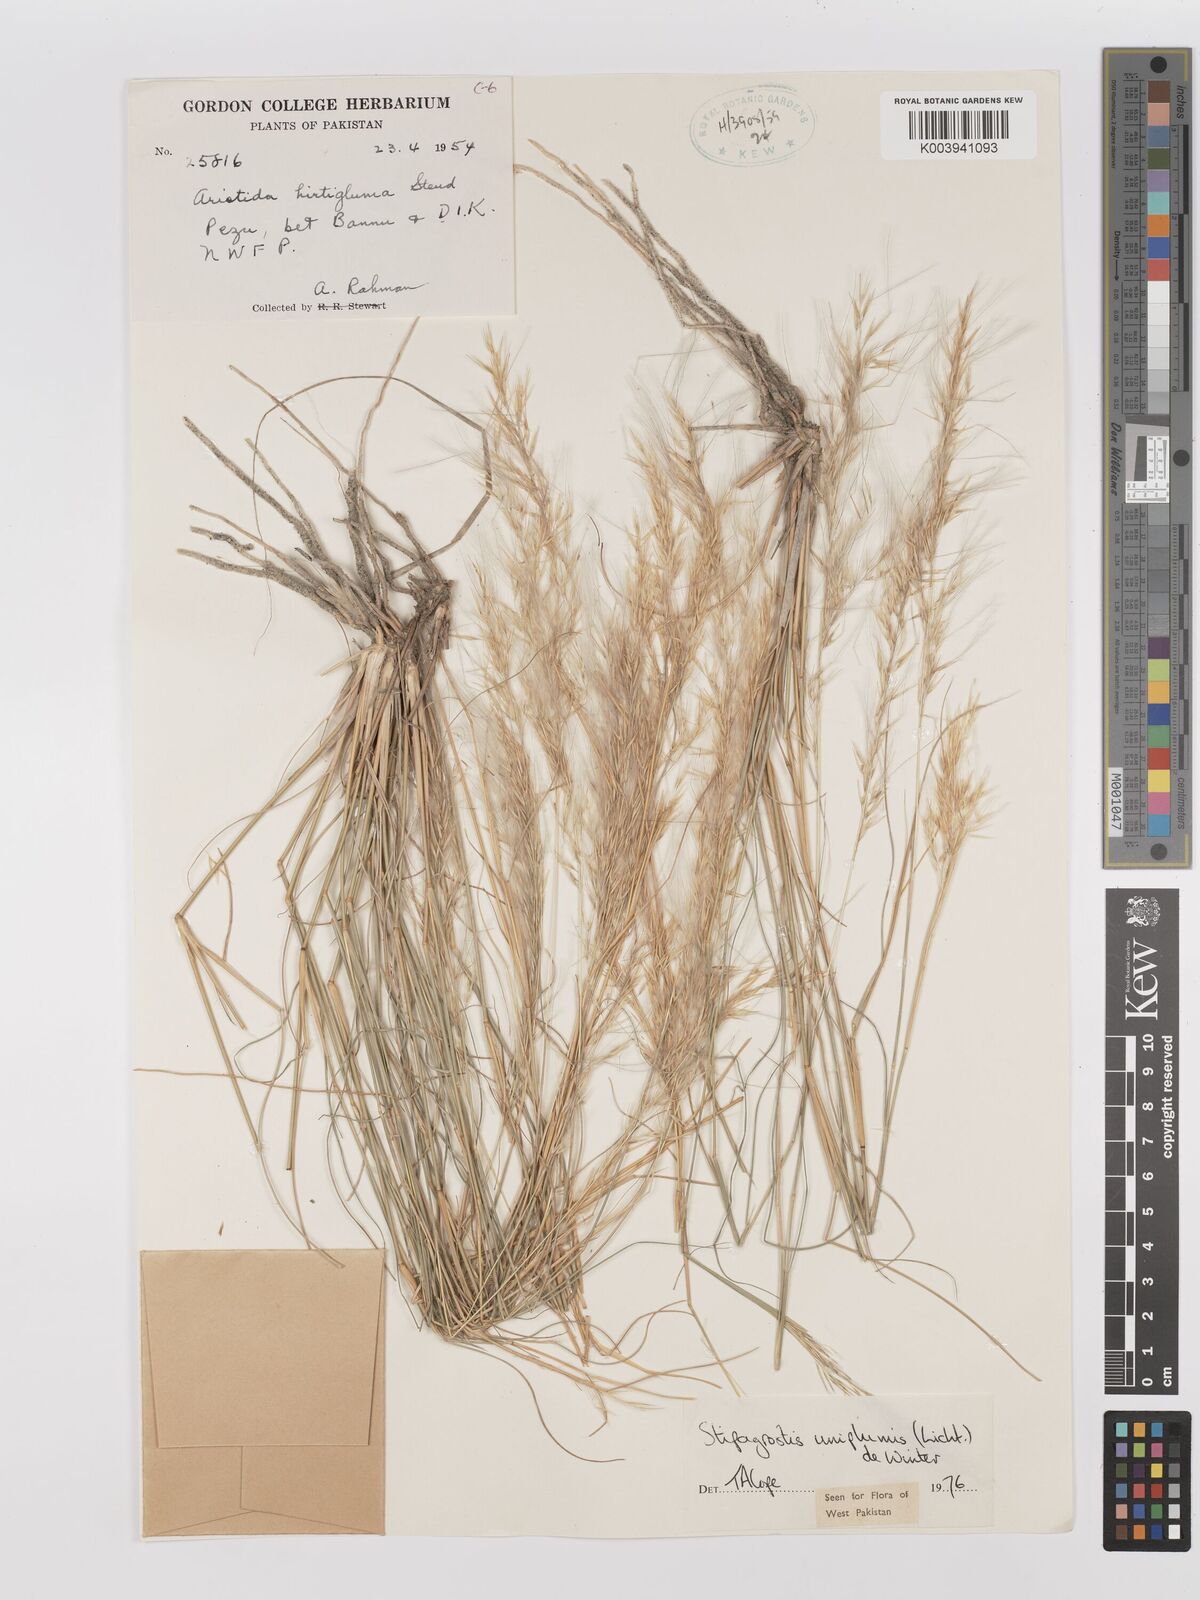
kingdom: Plantae
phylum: Tracheophyta
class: Liliopsida
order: Poales
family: Poaceae
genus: Stipagrostis
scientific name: Stipagrostis uniplumis
